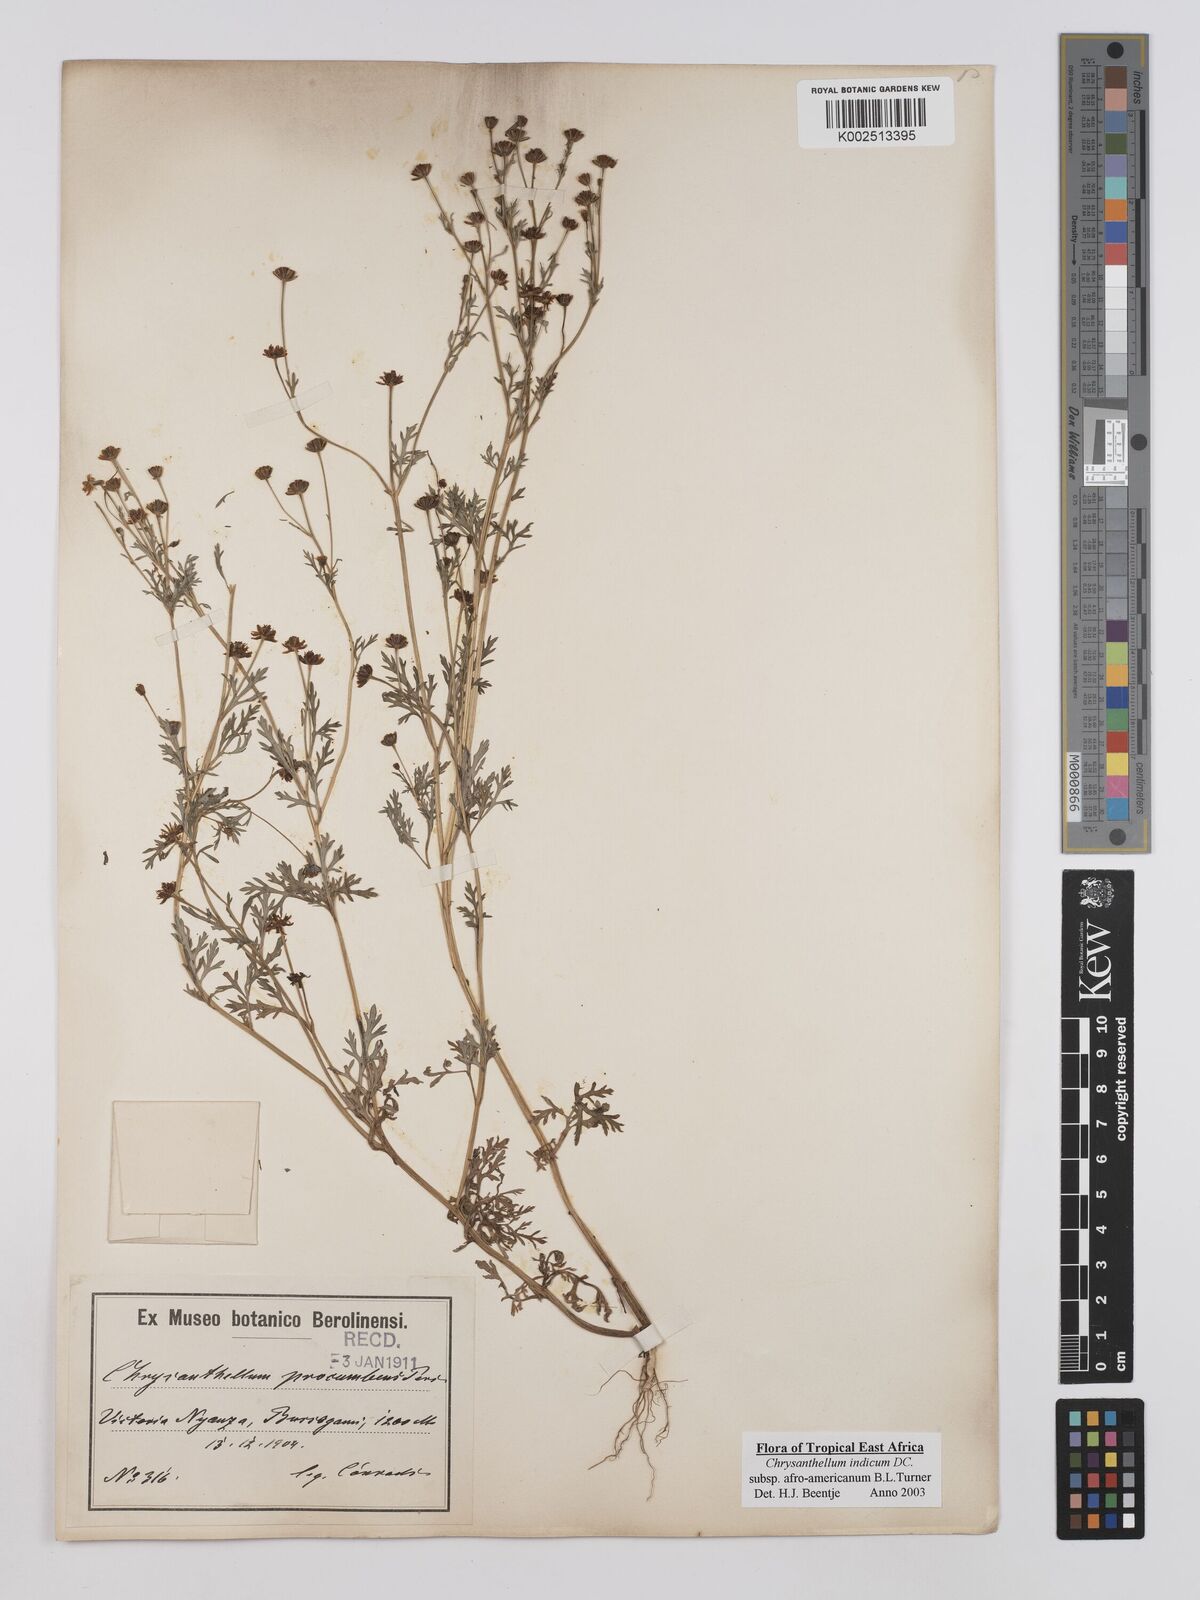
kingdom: Plantae
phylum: Tracheophyta
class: Magnoliopsida
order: Asterales
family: Asteraceae
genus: Chrysanthellum
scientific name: Chrysanthellum indicum
